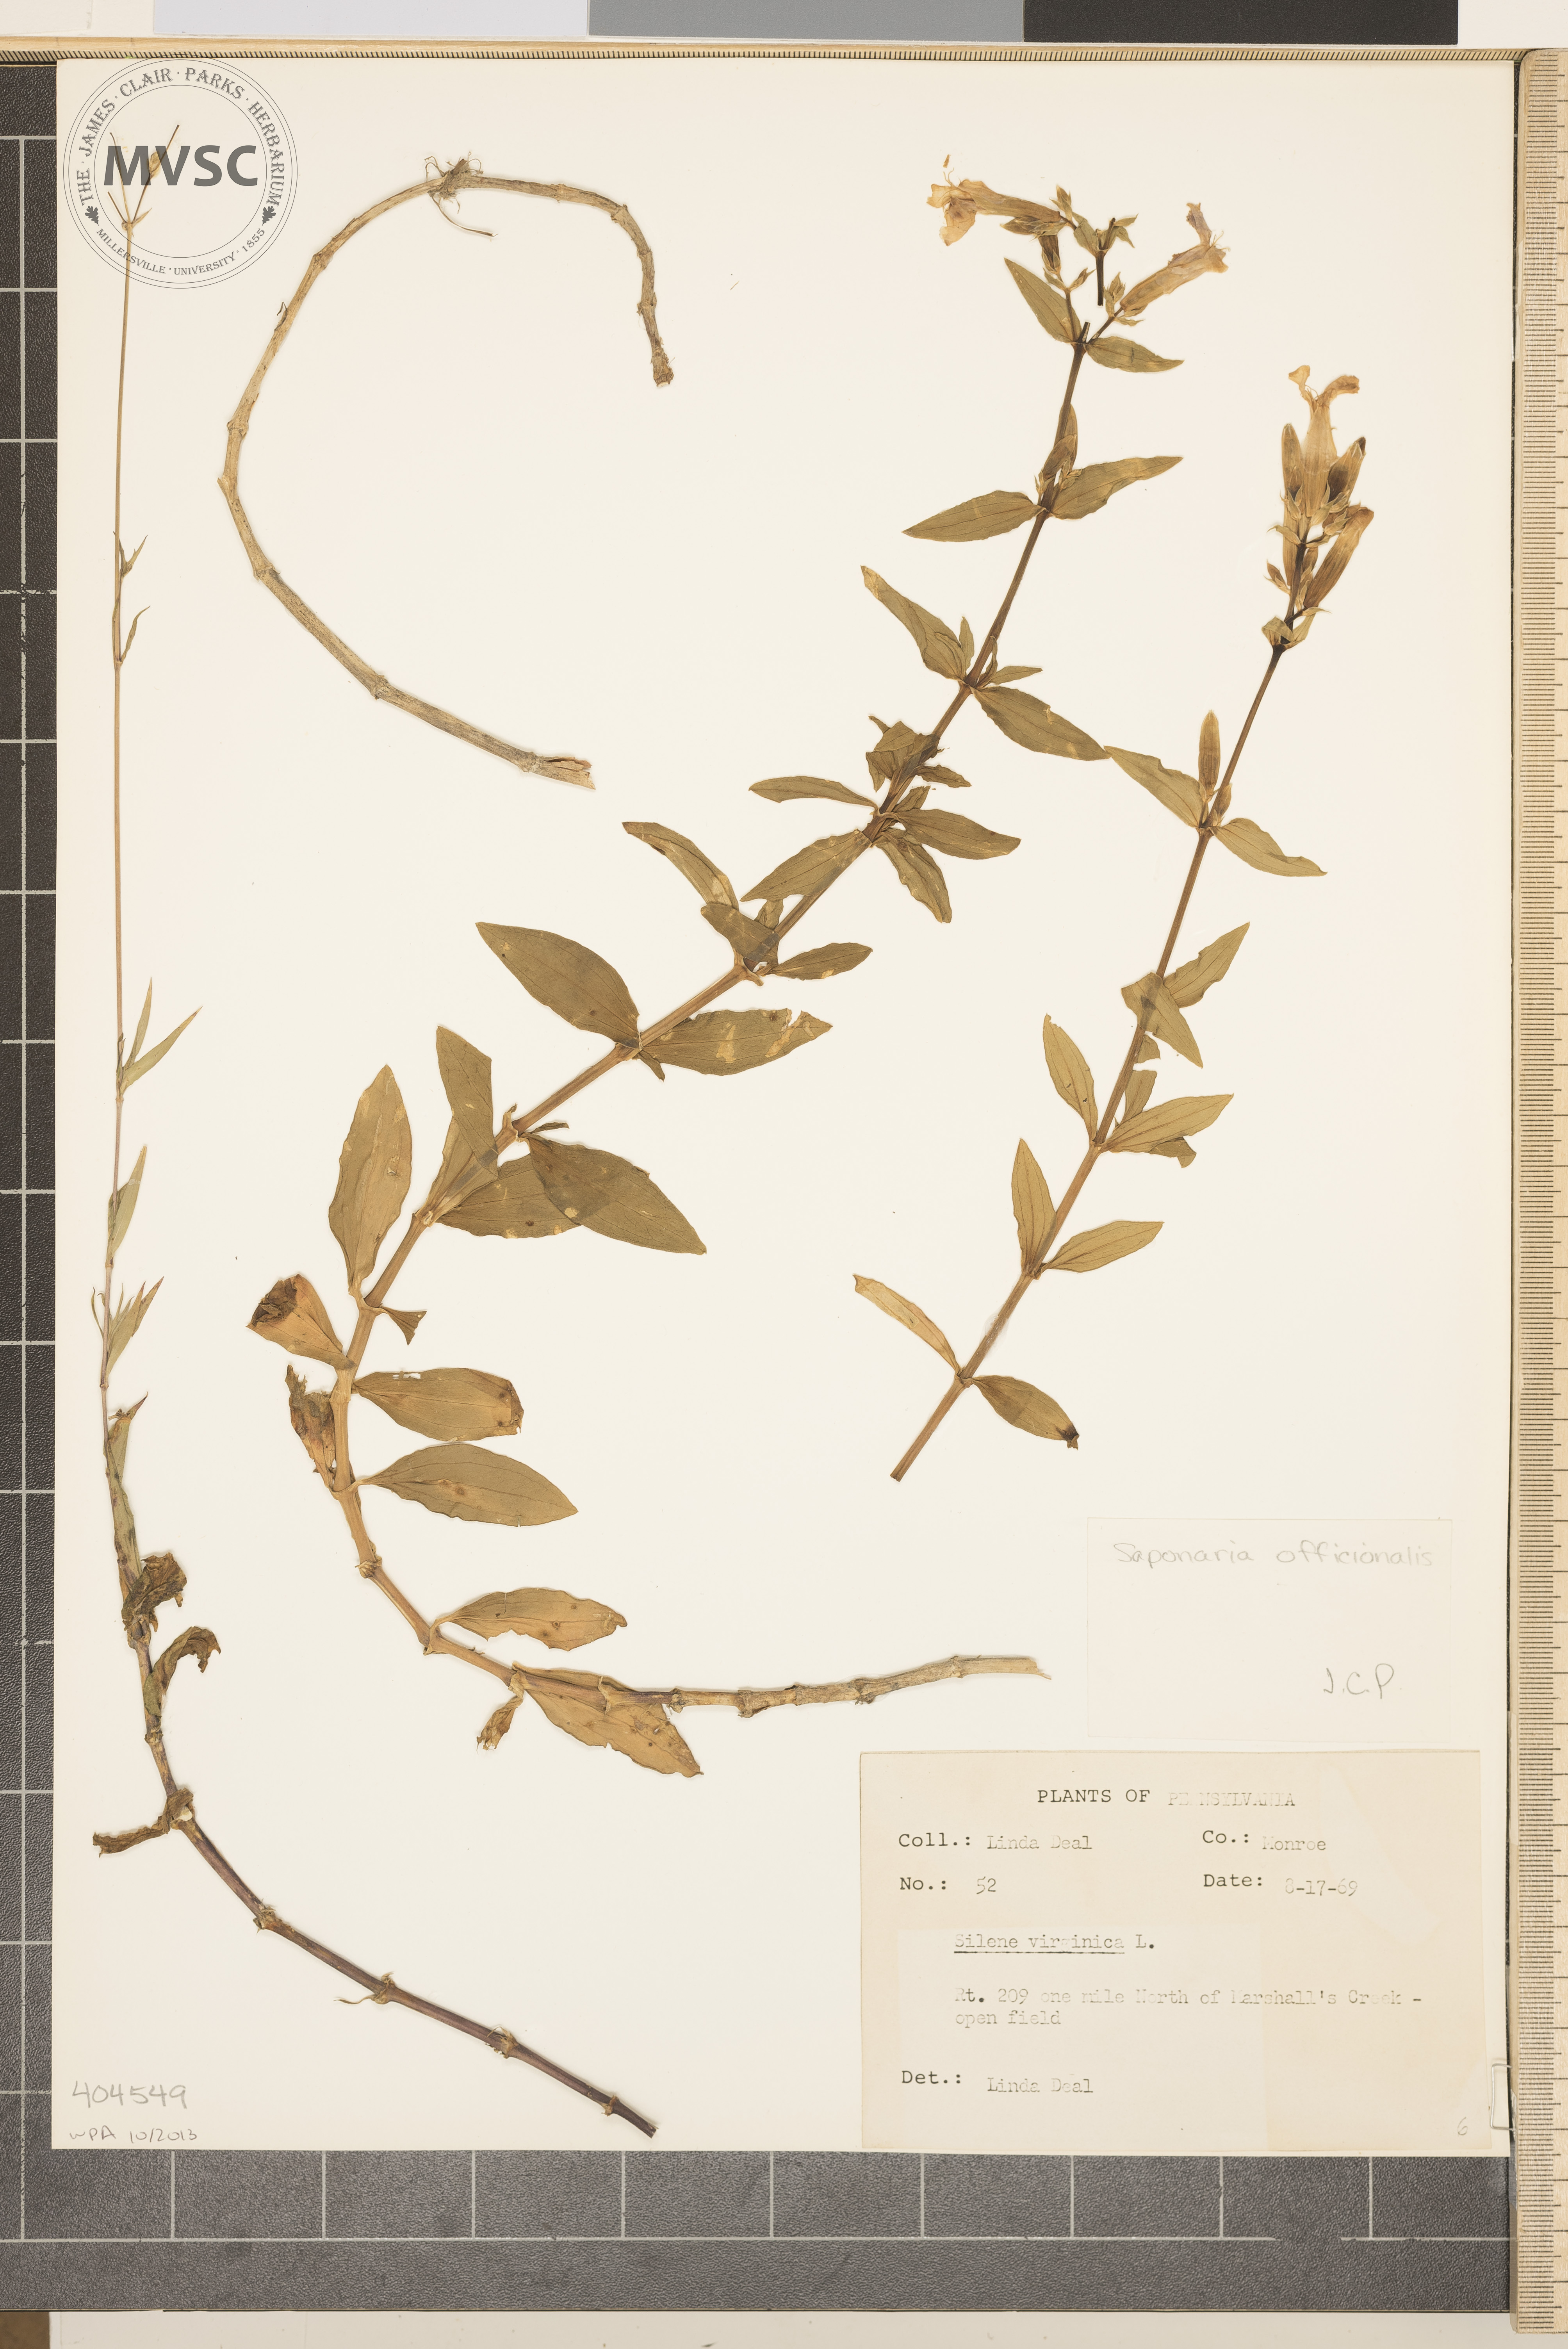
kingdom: Plantae
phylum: Tracheophyta
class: Magnoliopsida
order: Caryophyllales
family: Caryophyllaceae
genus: Saponaria
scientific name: Saponaria officinalis
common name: Soapwort
